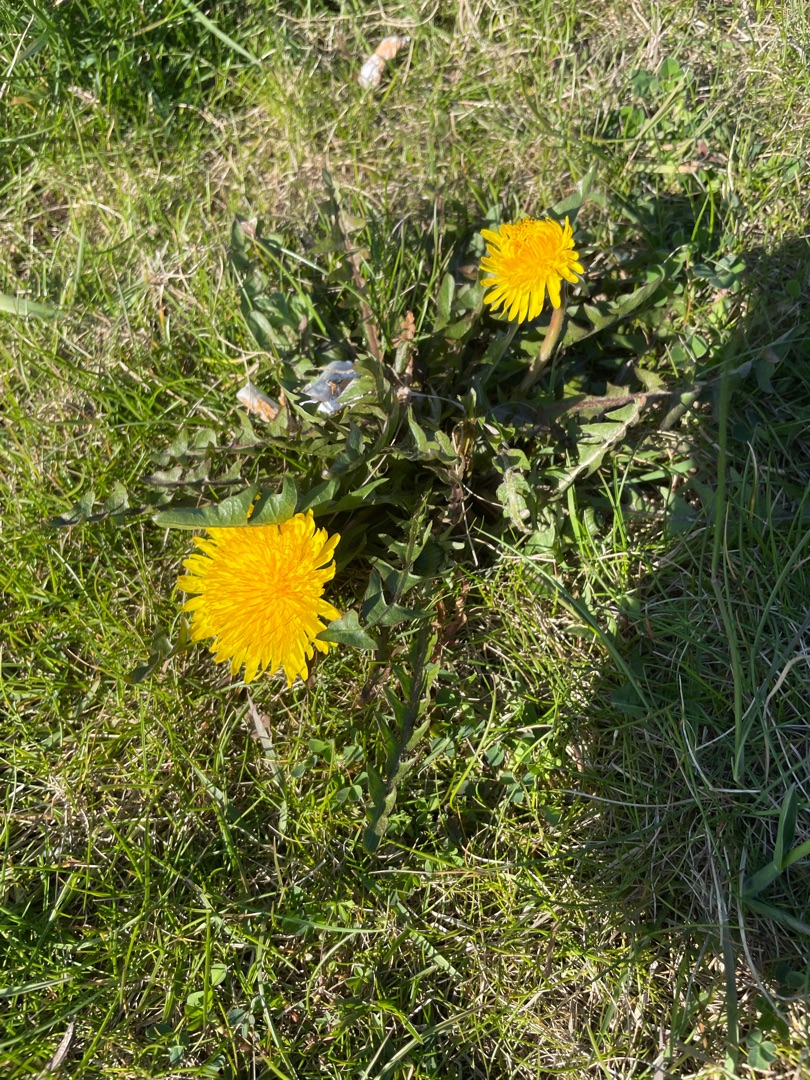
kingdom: Plantae
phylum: Tracheophyta
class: Magnoliopsida
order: Asterales
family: Asteraceae
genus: Taraxacum
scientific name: Taraxacum
